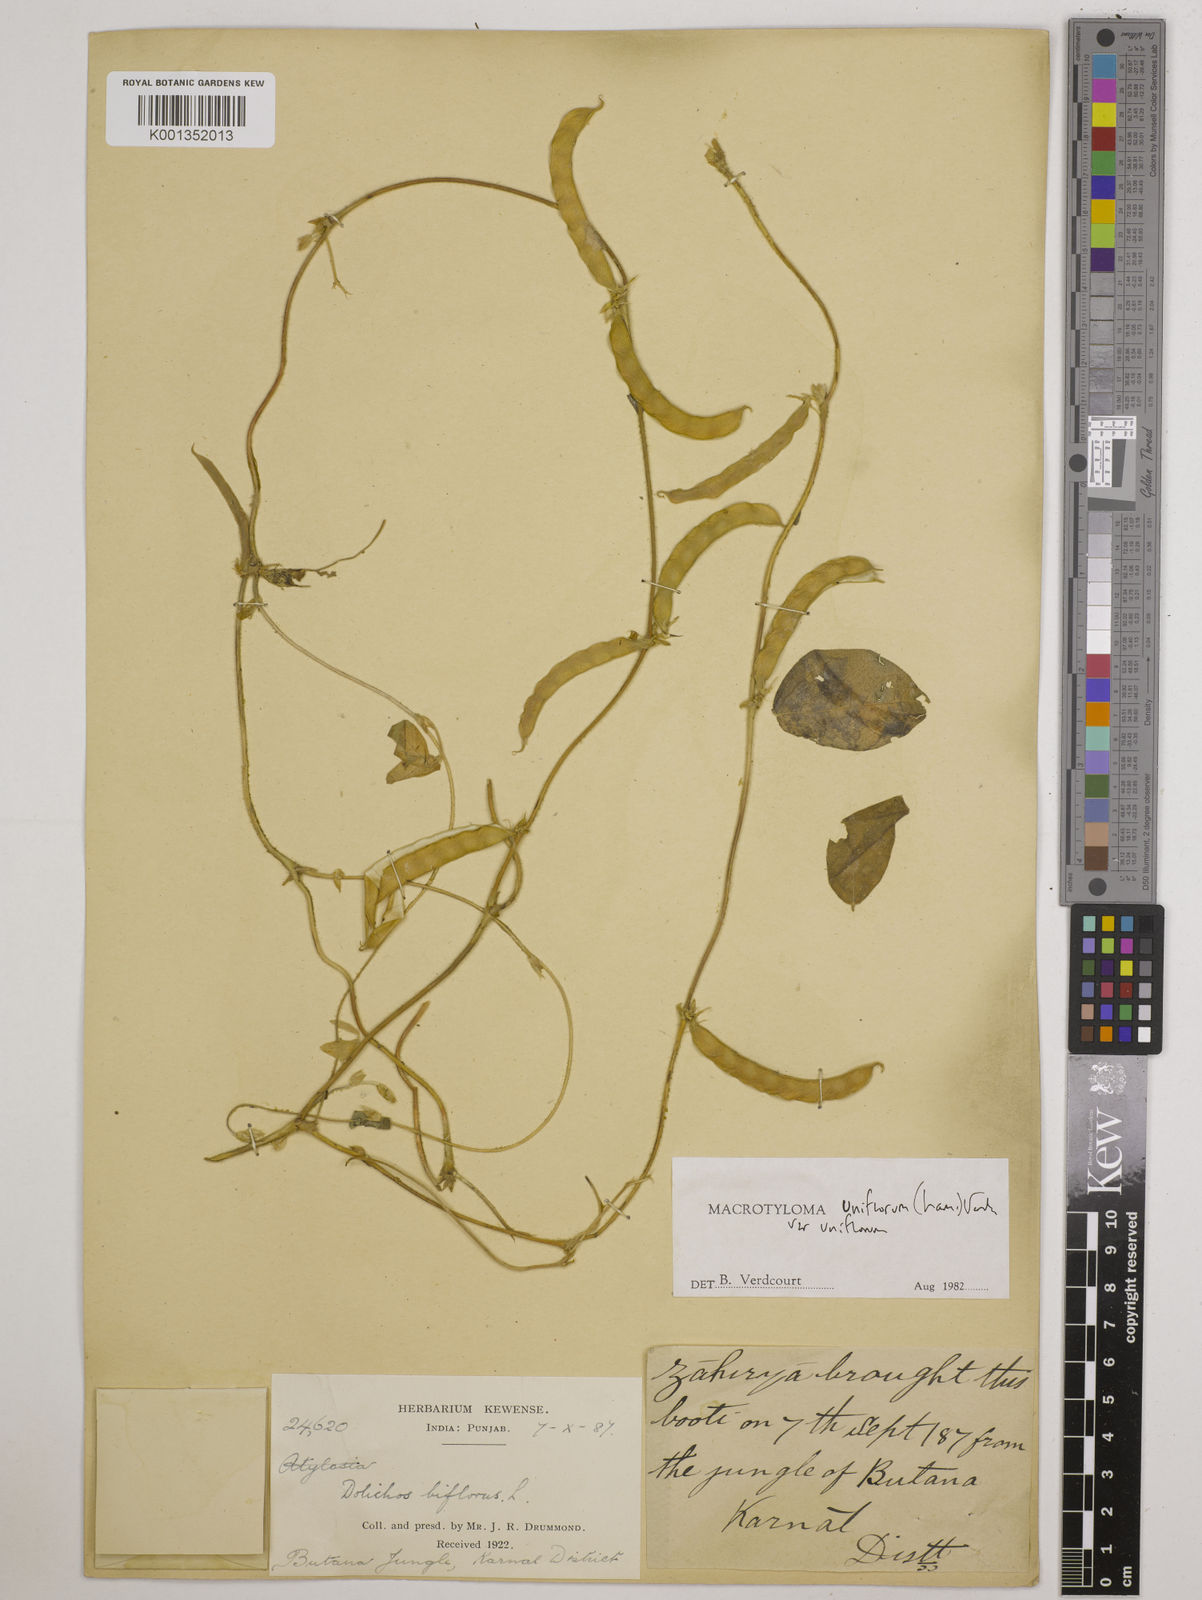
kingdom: Plantae
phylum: Tracheophyta
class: Magnoliopsida
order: Fabales
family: Fabaceae
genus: Macrotyloma
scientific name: Macrotyloma uniflorum
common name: Horse gram
